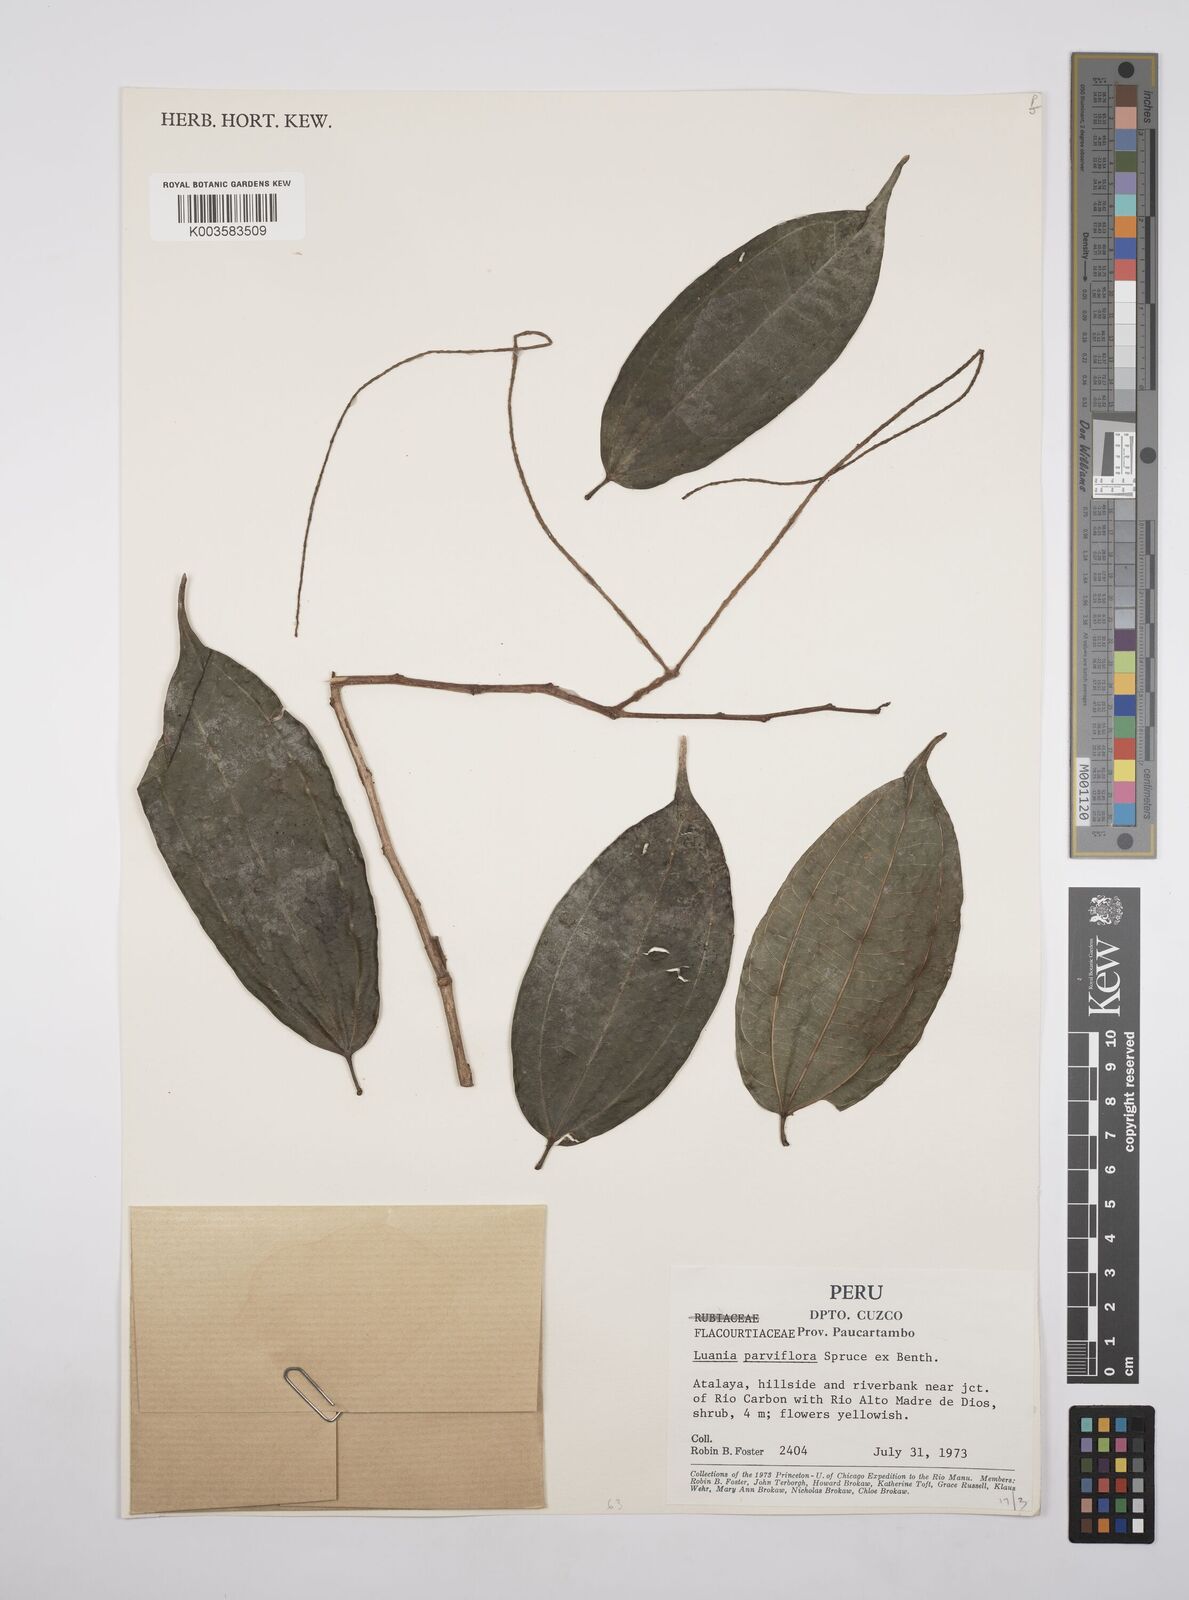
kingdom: Plantae
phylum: Tracheophyta
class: Magnoliopsida
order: Malpighiales
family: Salicaceae
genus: Lunania
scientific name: Lunania parviflora
